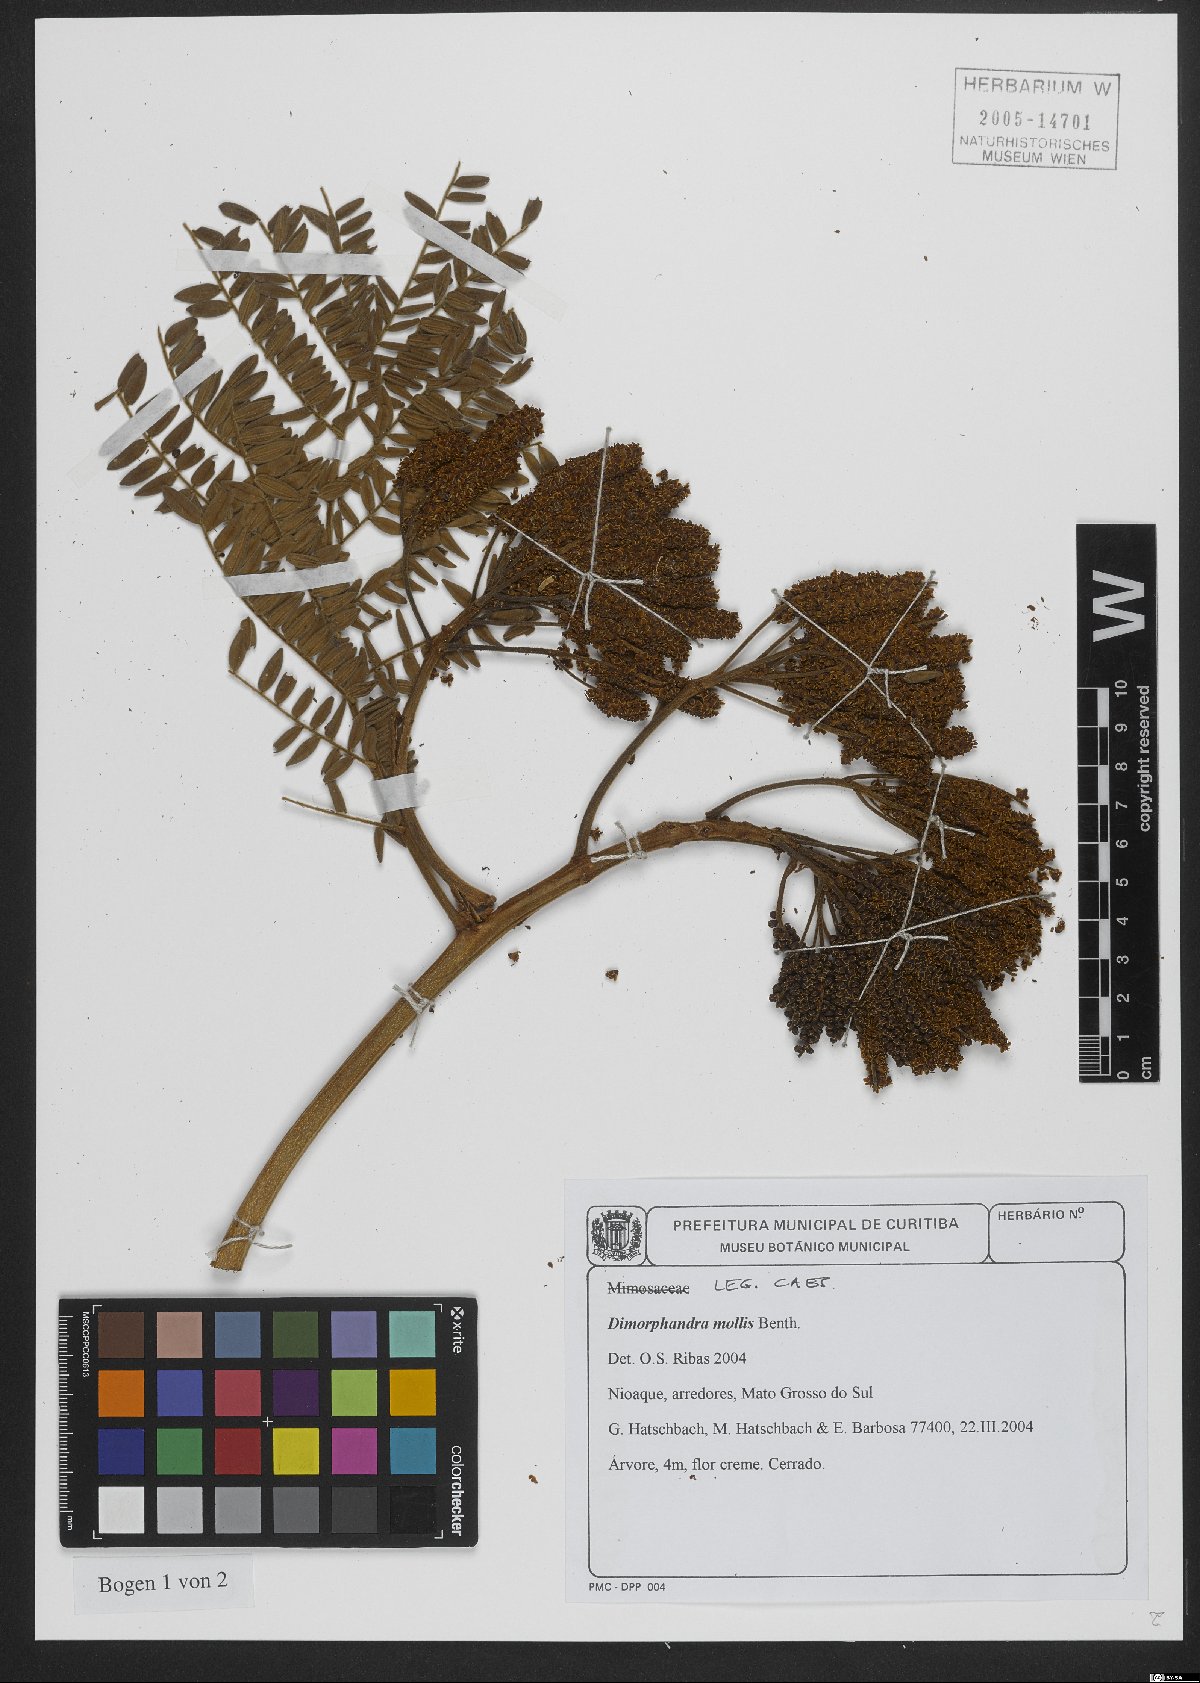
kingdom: Plantae
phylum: Tracheophyta
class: Magnoliopsida
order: Fabales
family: Fabaceae
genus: Dimorphandra
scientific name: Dimorphandra mollis
